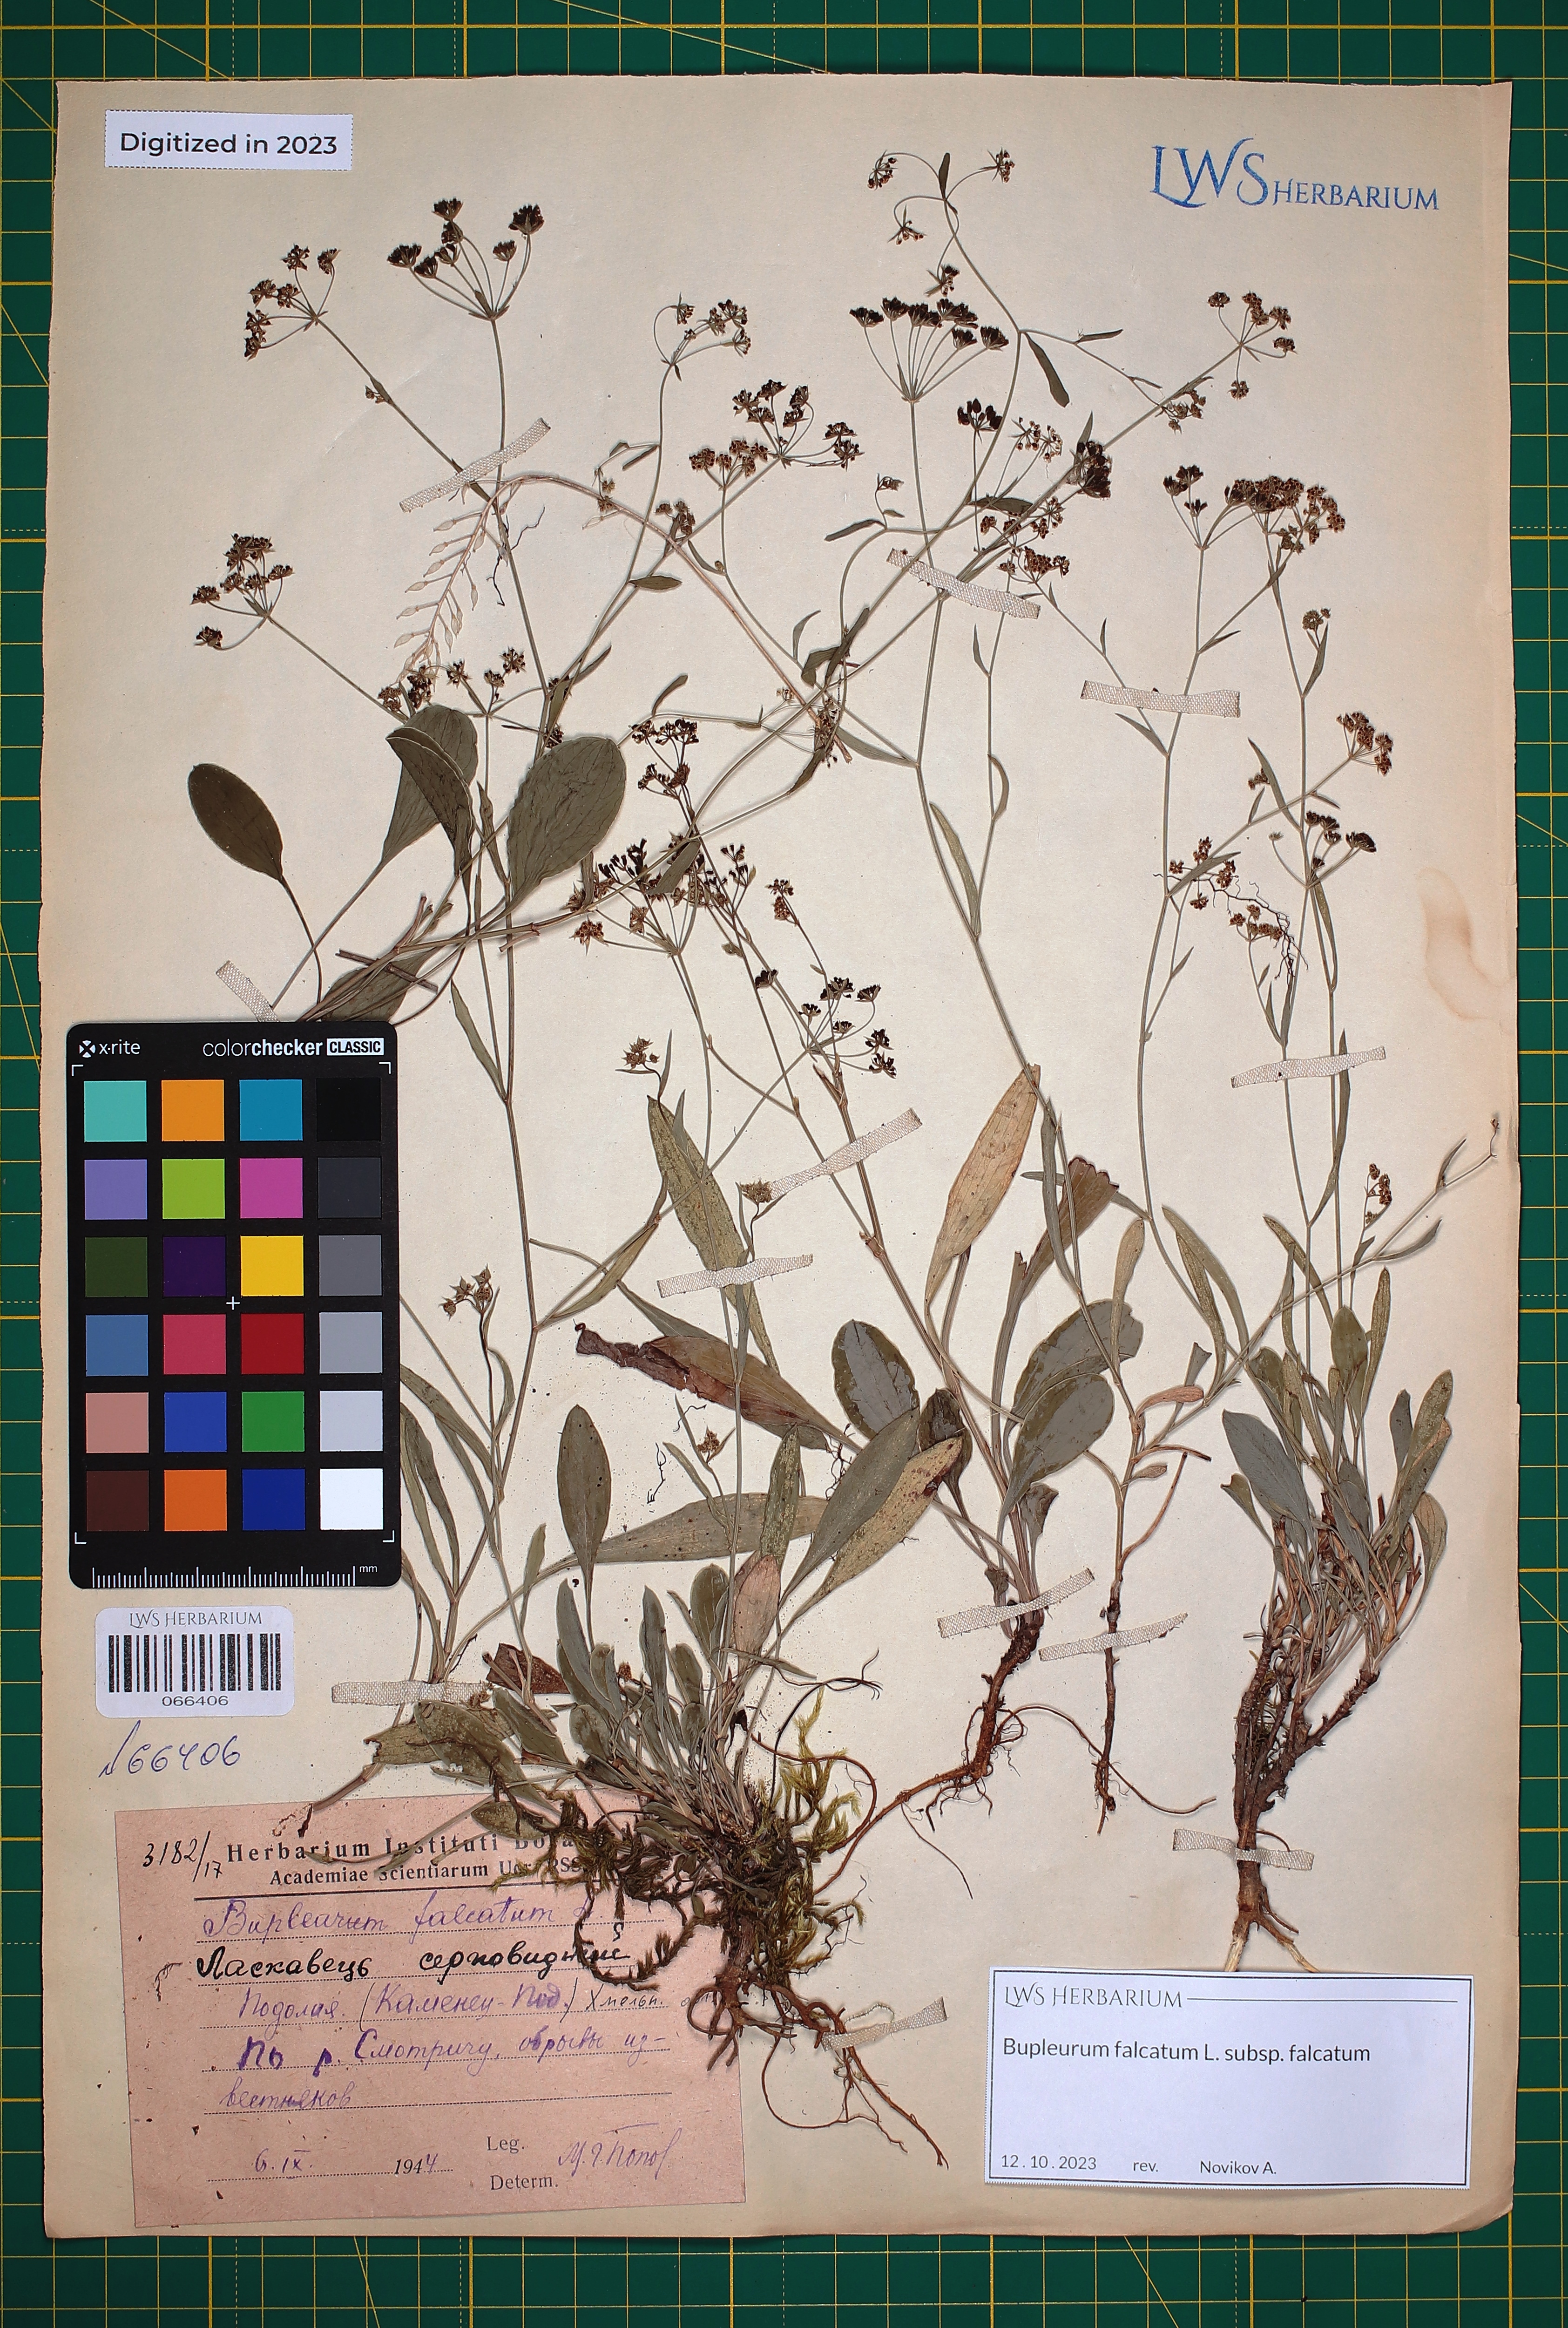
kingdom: Plantae
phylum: Tracheophyta
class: Magnoliopsida
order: Apiales
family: Apiaceae
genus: Bupleurum
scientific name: Bupleurum falcatum
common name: Sickle-leaved hare's-ear
